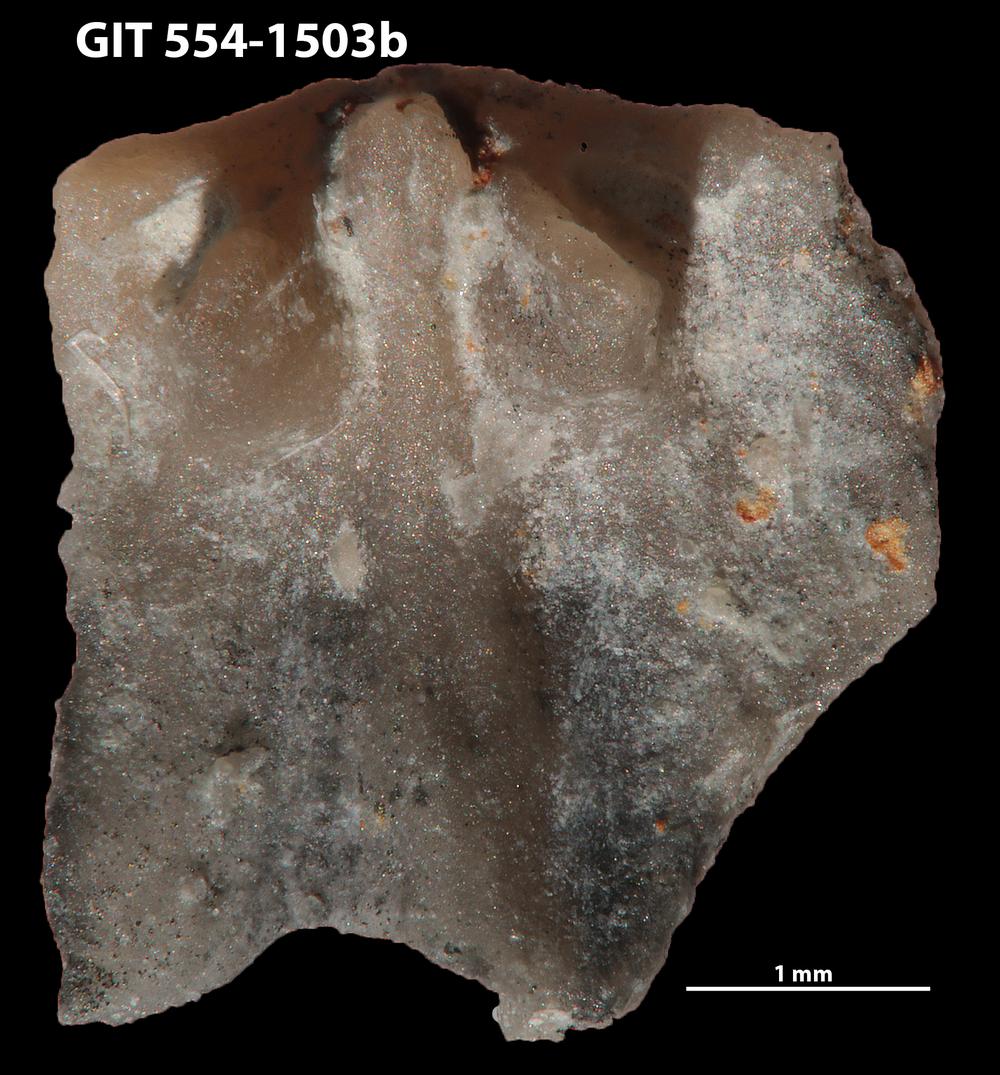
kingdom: Animalia
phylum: Brachiopoda
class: Rhynchonellata
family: Rhipidomellidae
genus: Mendacella
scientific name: Mendacella circularis
